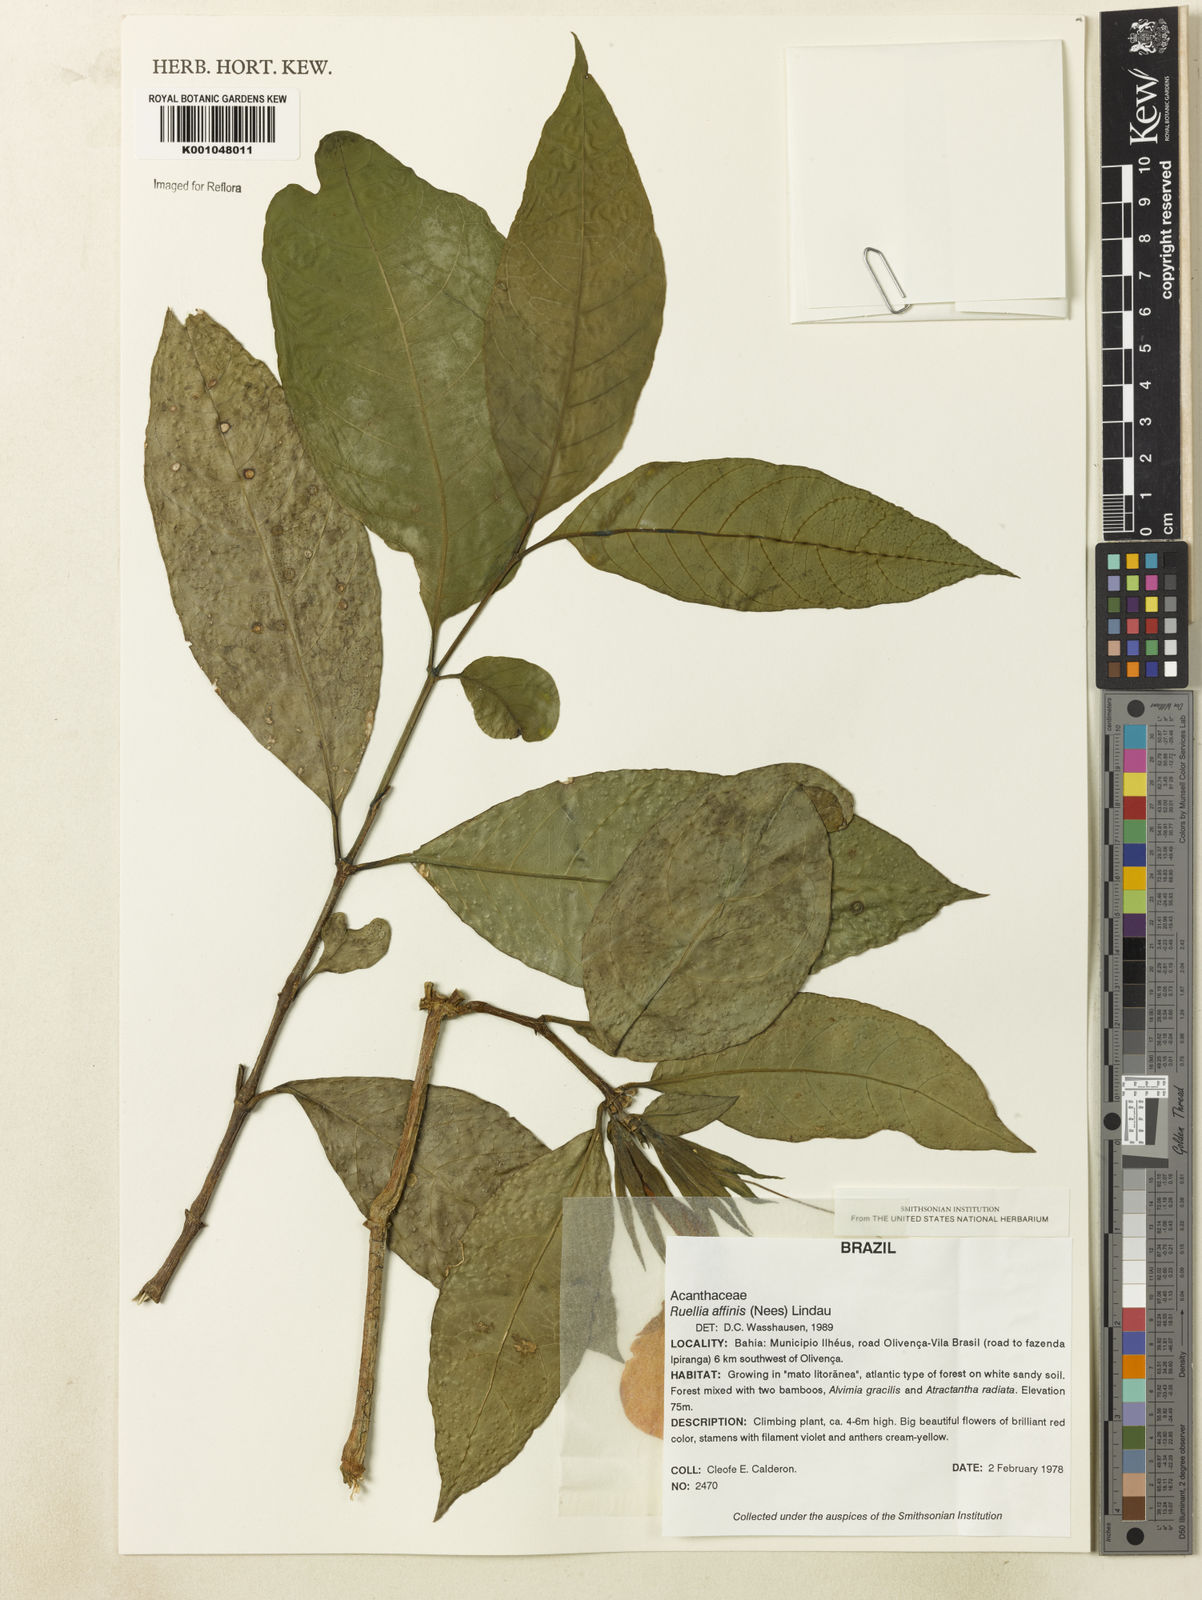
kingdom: Plantae
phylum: Tracheophyta
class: Magnoliopsida
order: Lamiales
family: Acanthaceae
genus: Ruellia
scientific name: Ruellia adenocalyx
